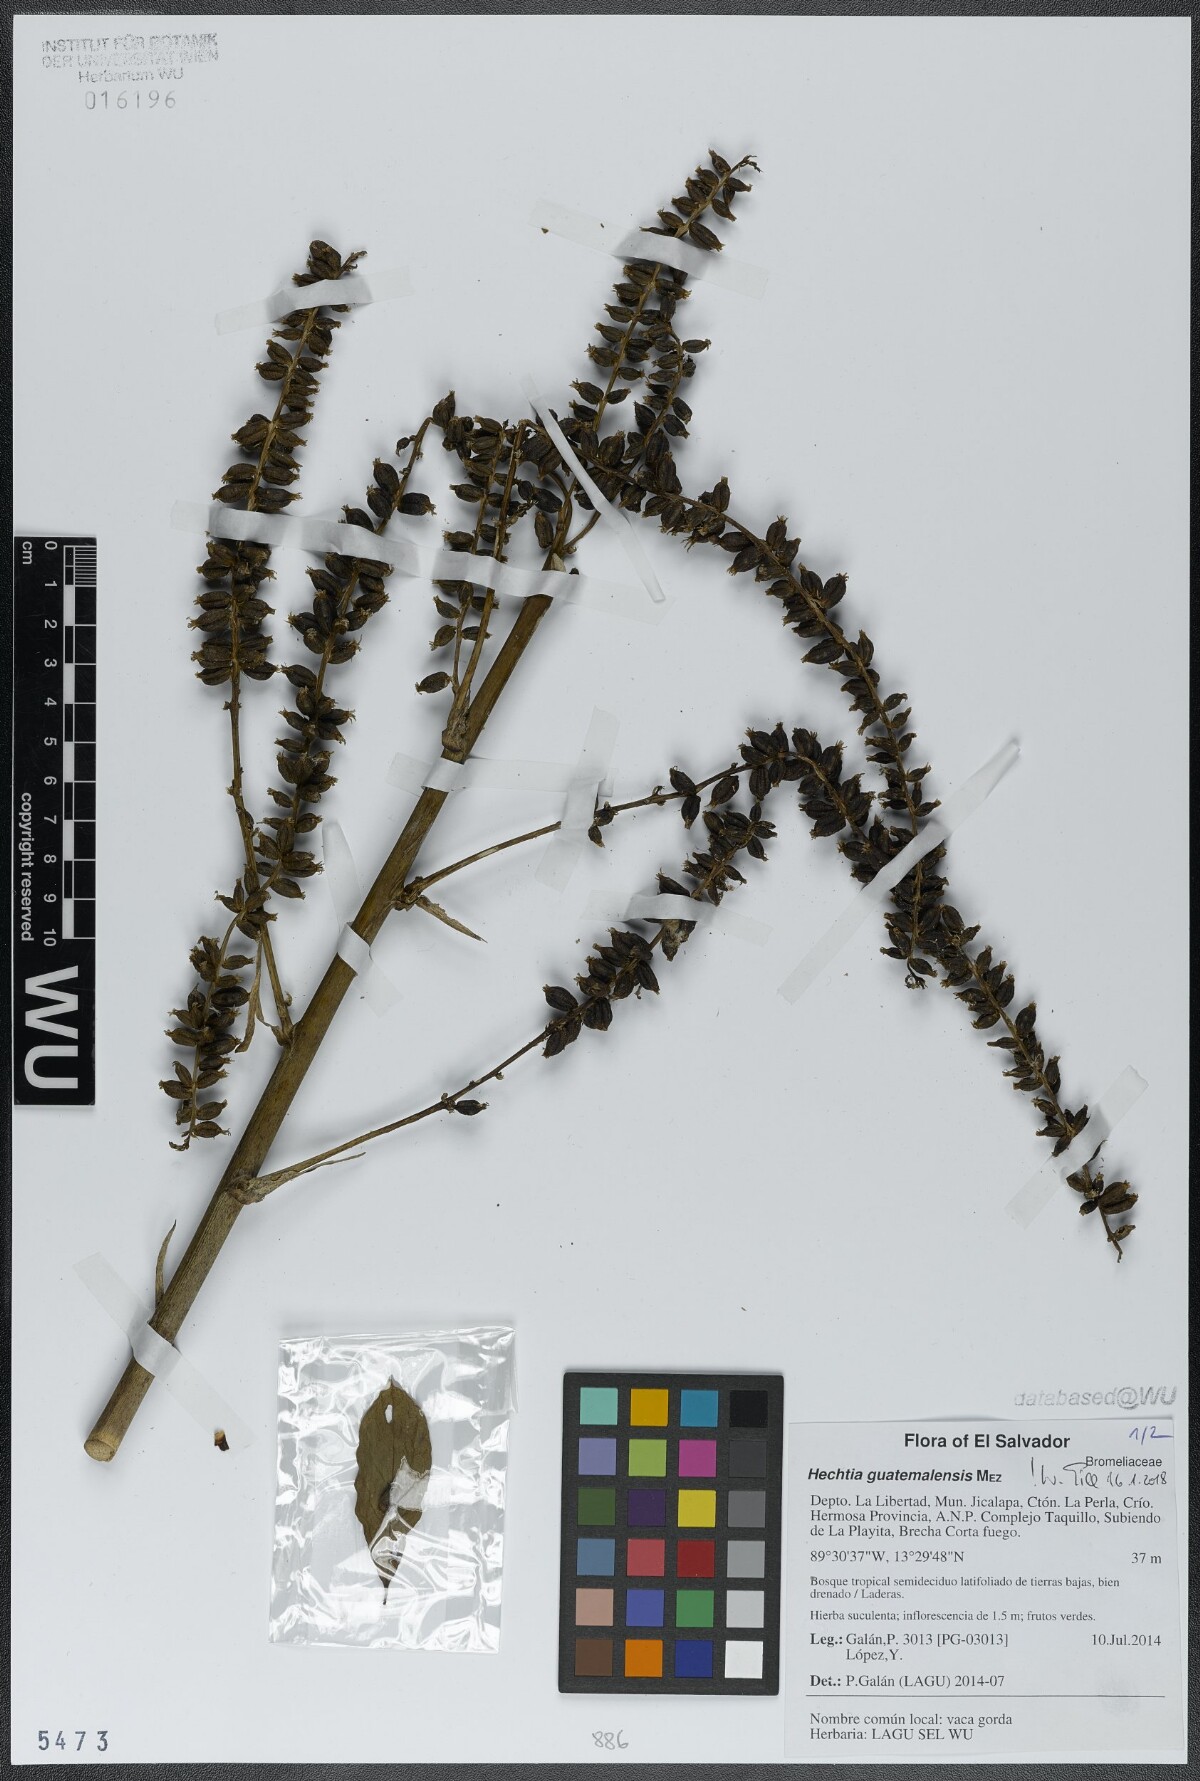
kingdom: Plantae
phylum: Tracheophyta
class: Liliopsida
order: Poales
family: Bromeliaceae
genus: Hechtia
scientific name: Hechtia guatemalensis
